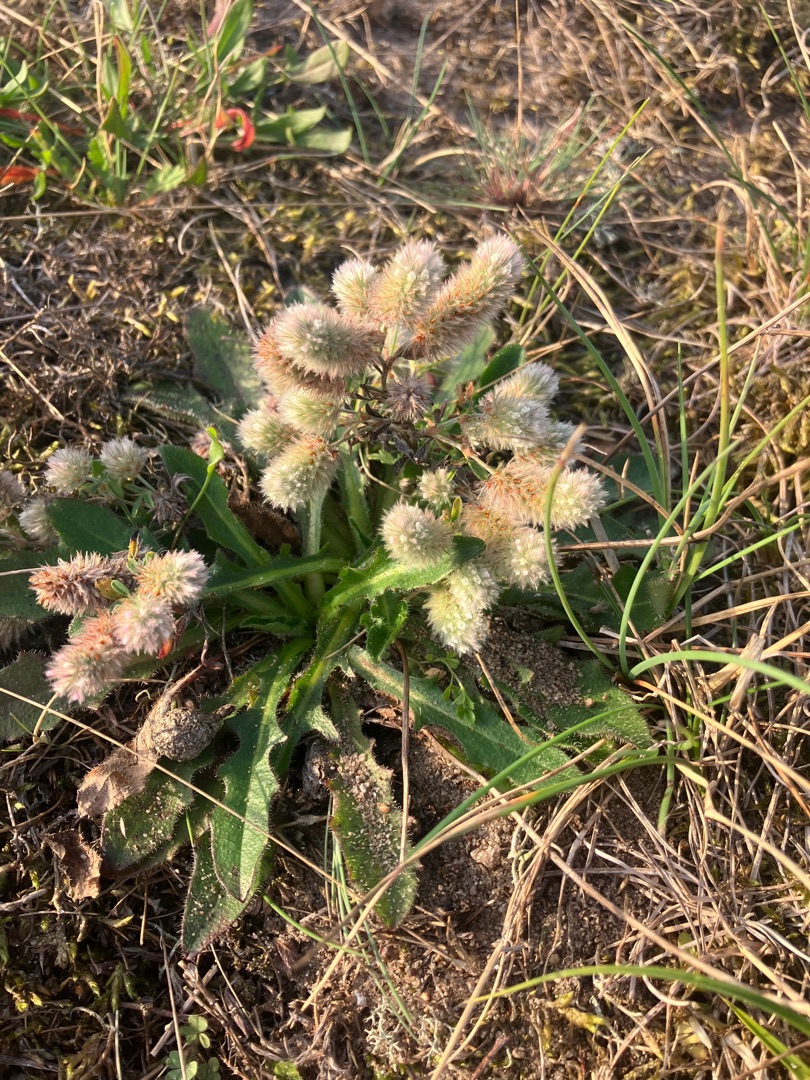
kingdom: Plantae
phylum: Tracheophyta
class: Magnoliopsida
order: Fabales
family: Fabaceae
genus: Trifolium
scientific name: Trifolium arvense
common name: Hare-kløver
